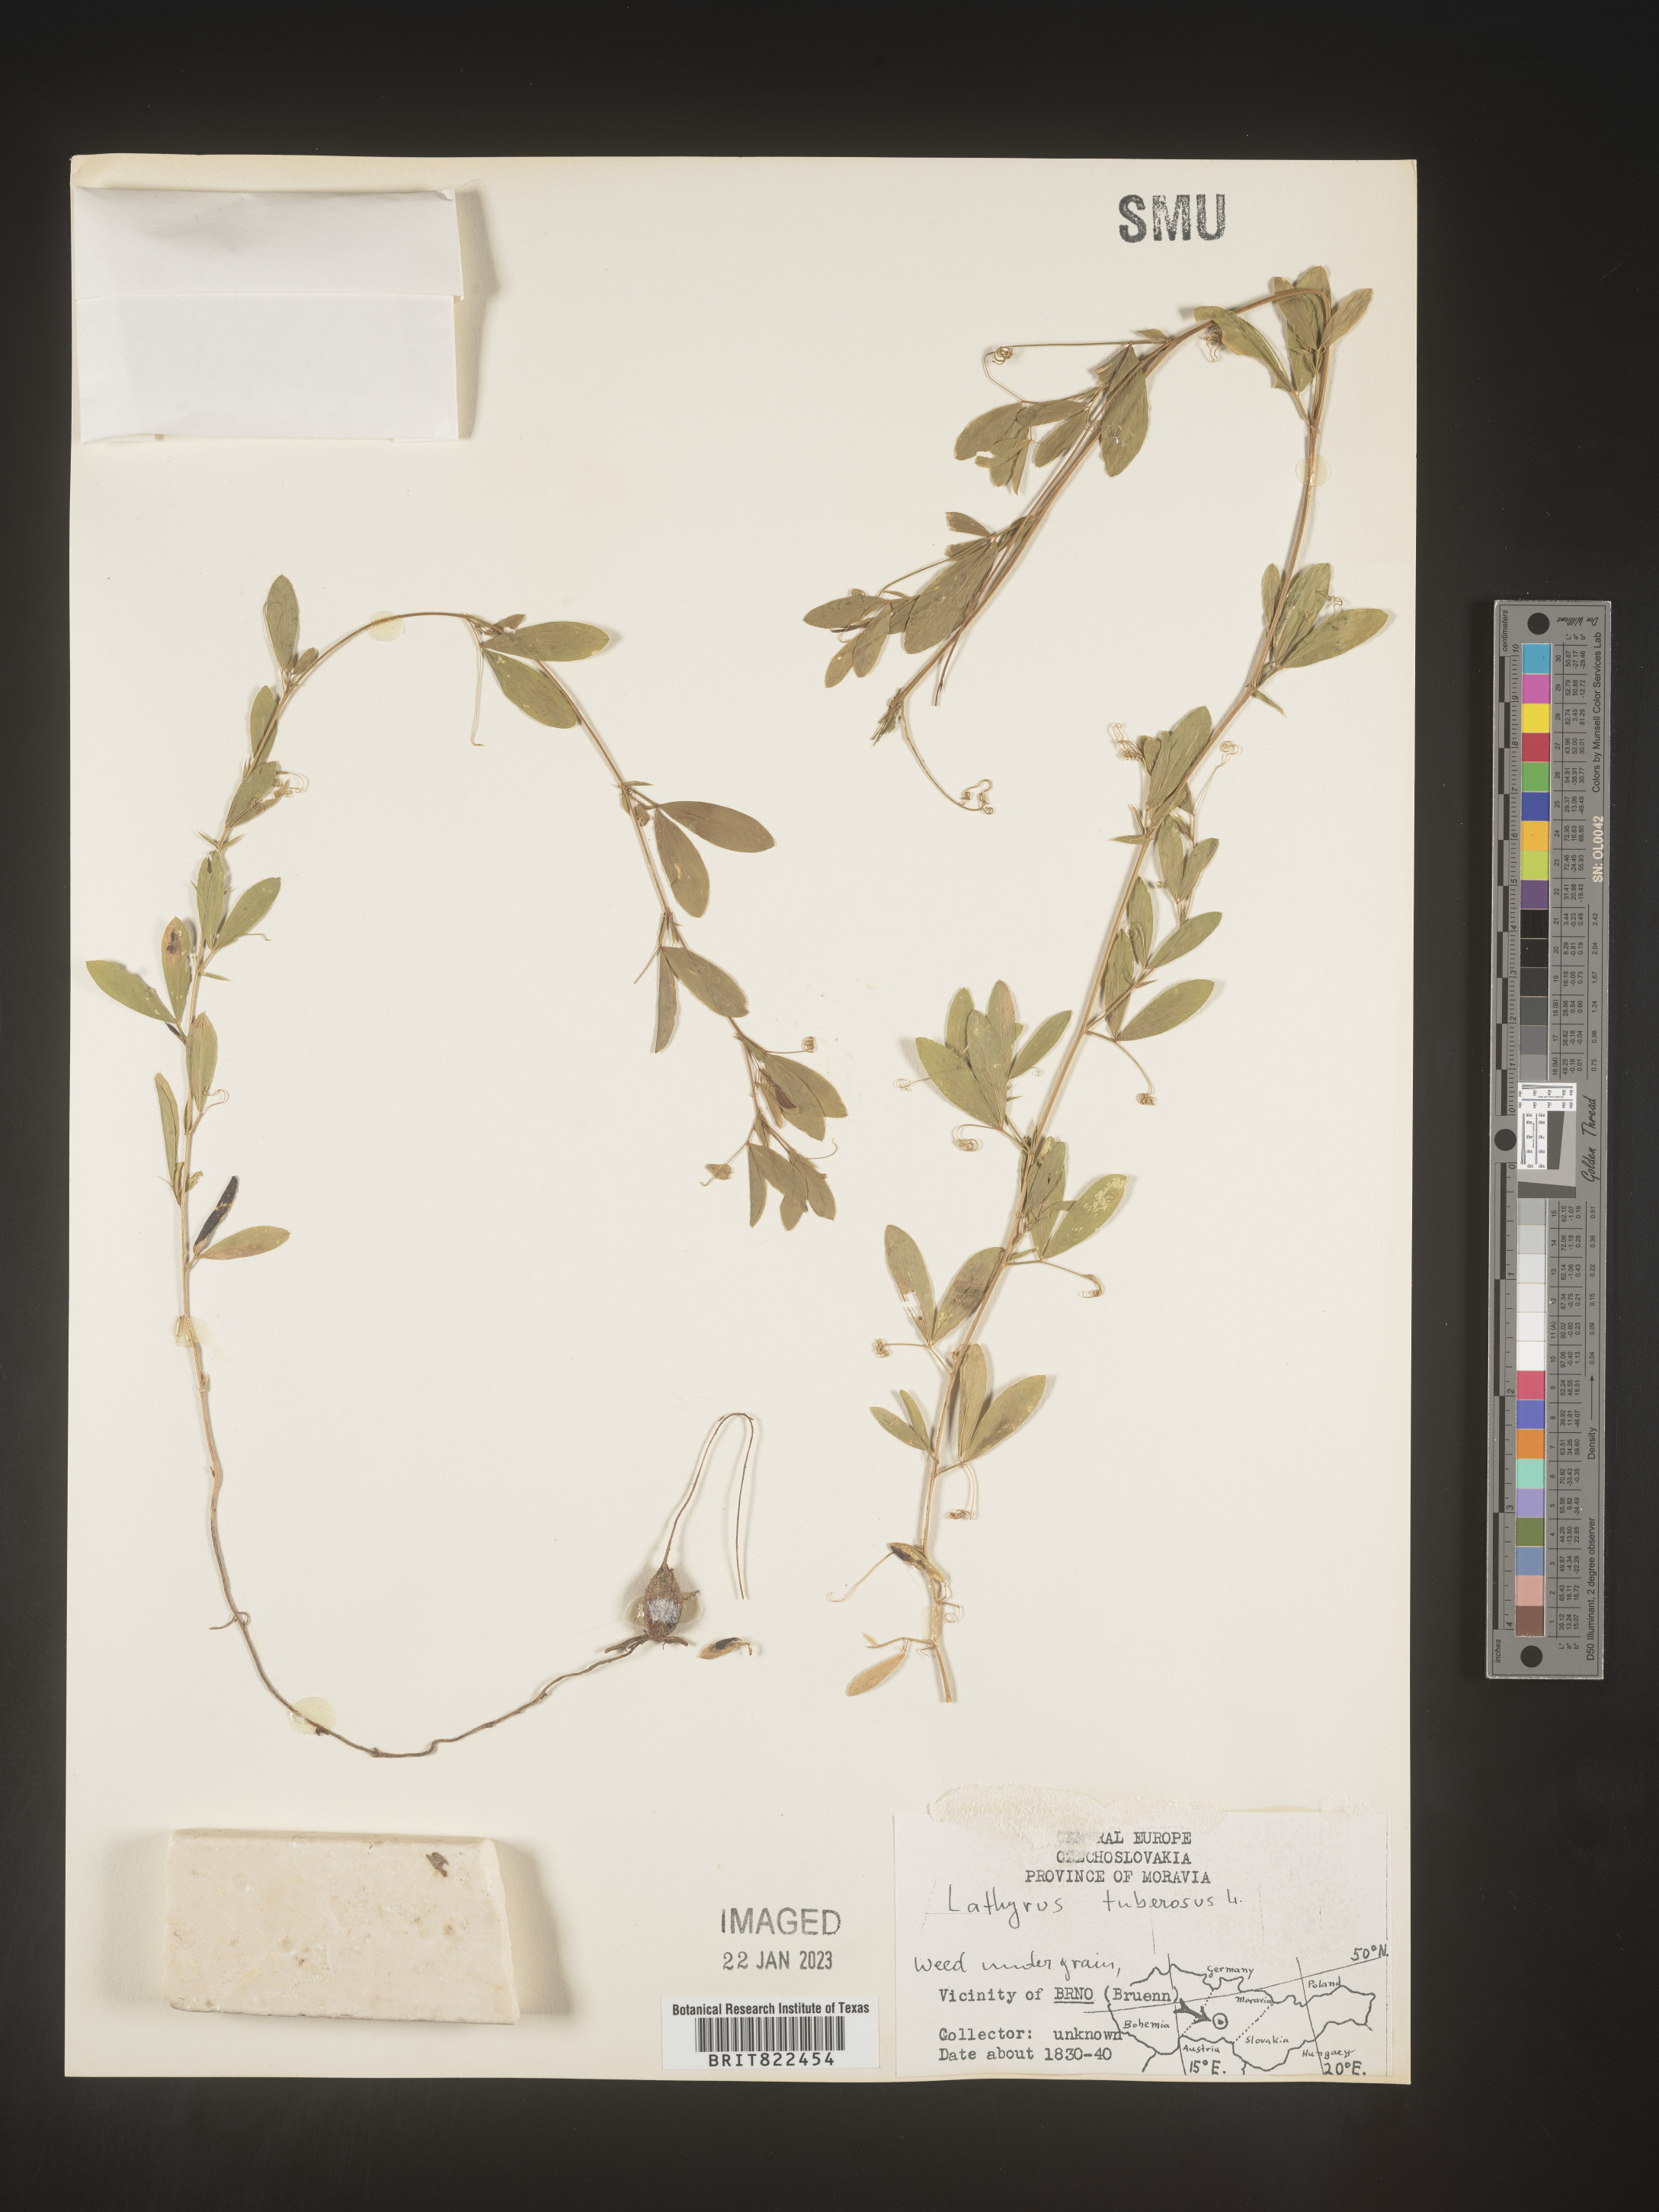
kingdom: Plantae
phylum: Tracheophyta
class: Magnoliopsida
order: Fabales
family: Fabaceae
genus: Lathyrus
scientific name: Lathyrus
